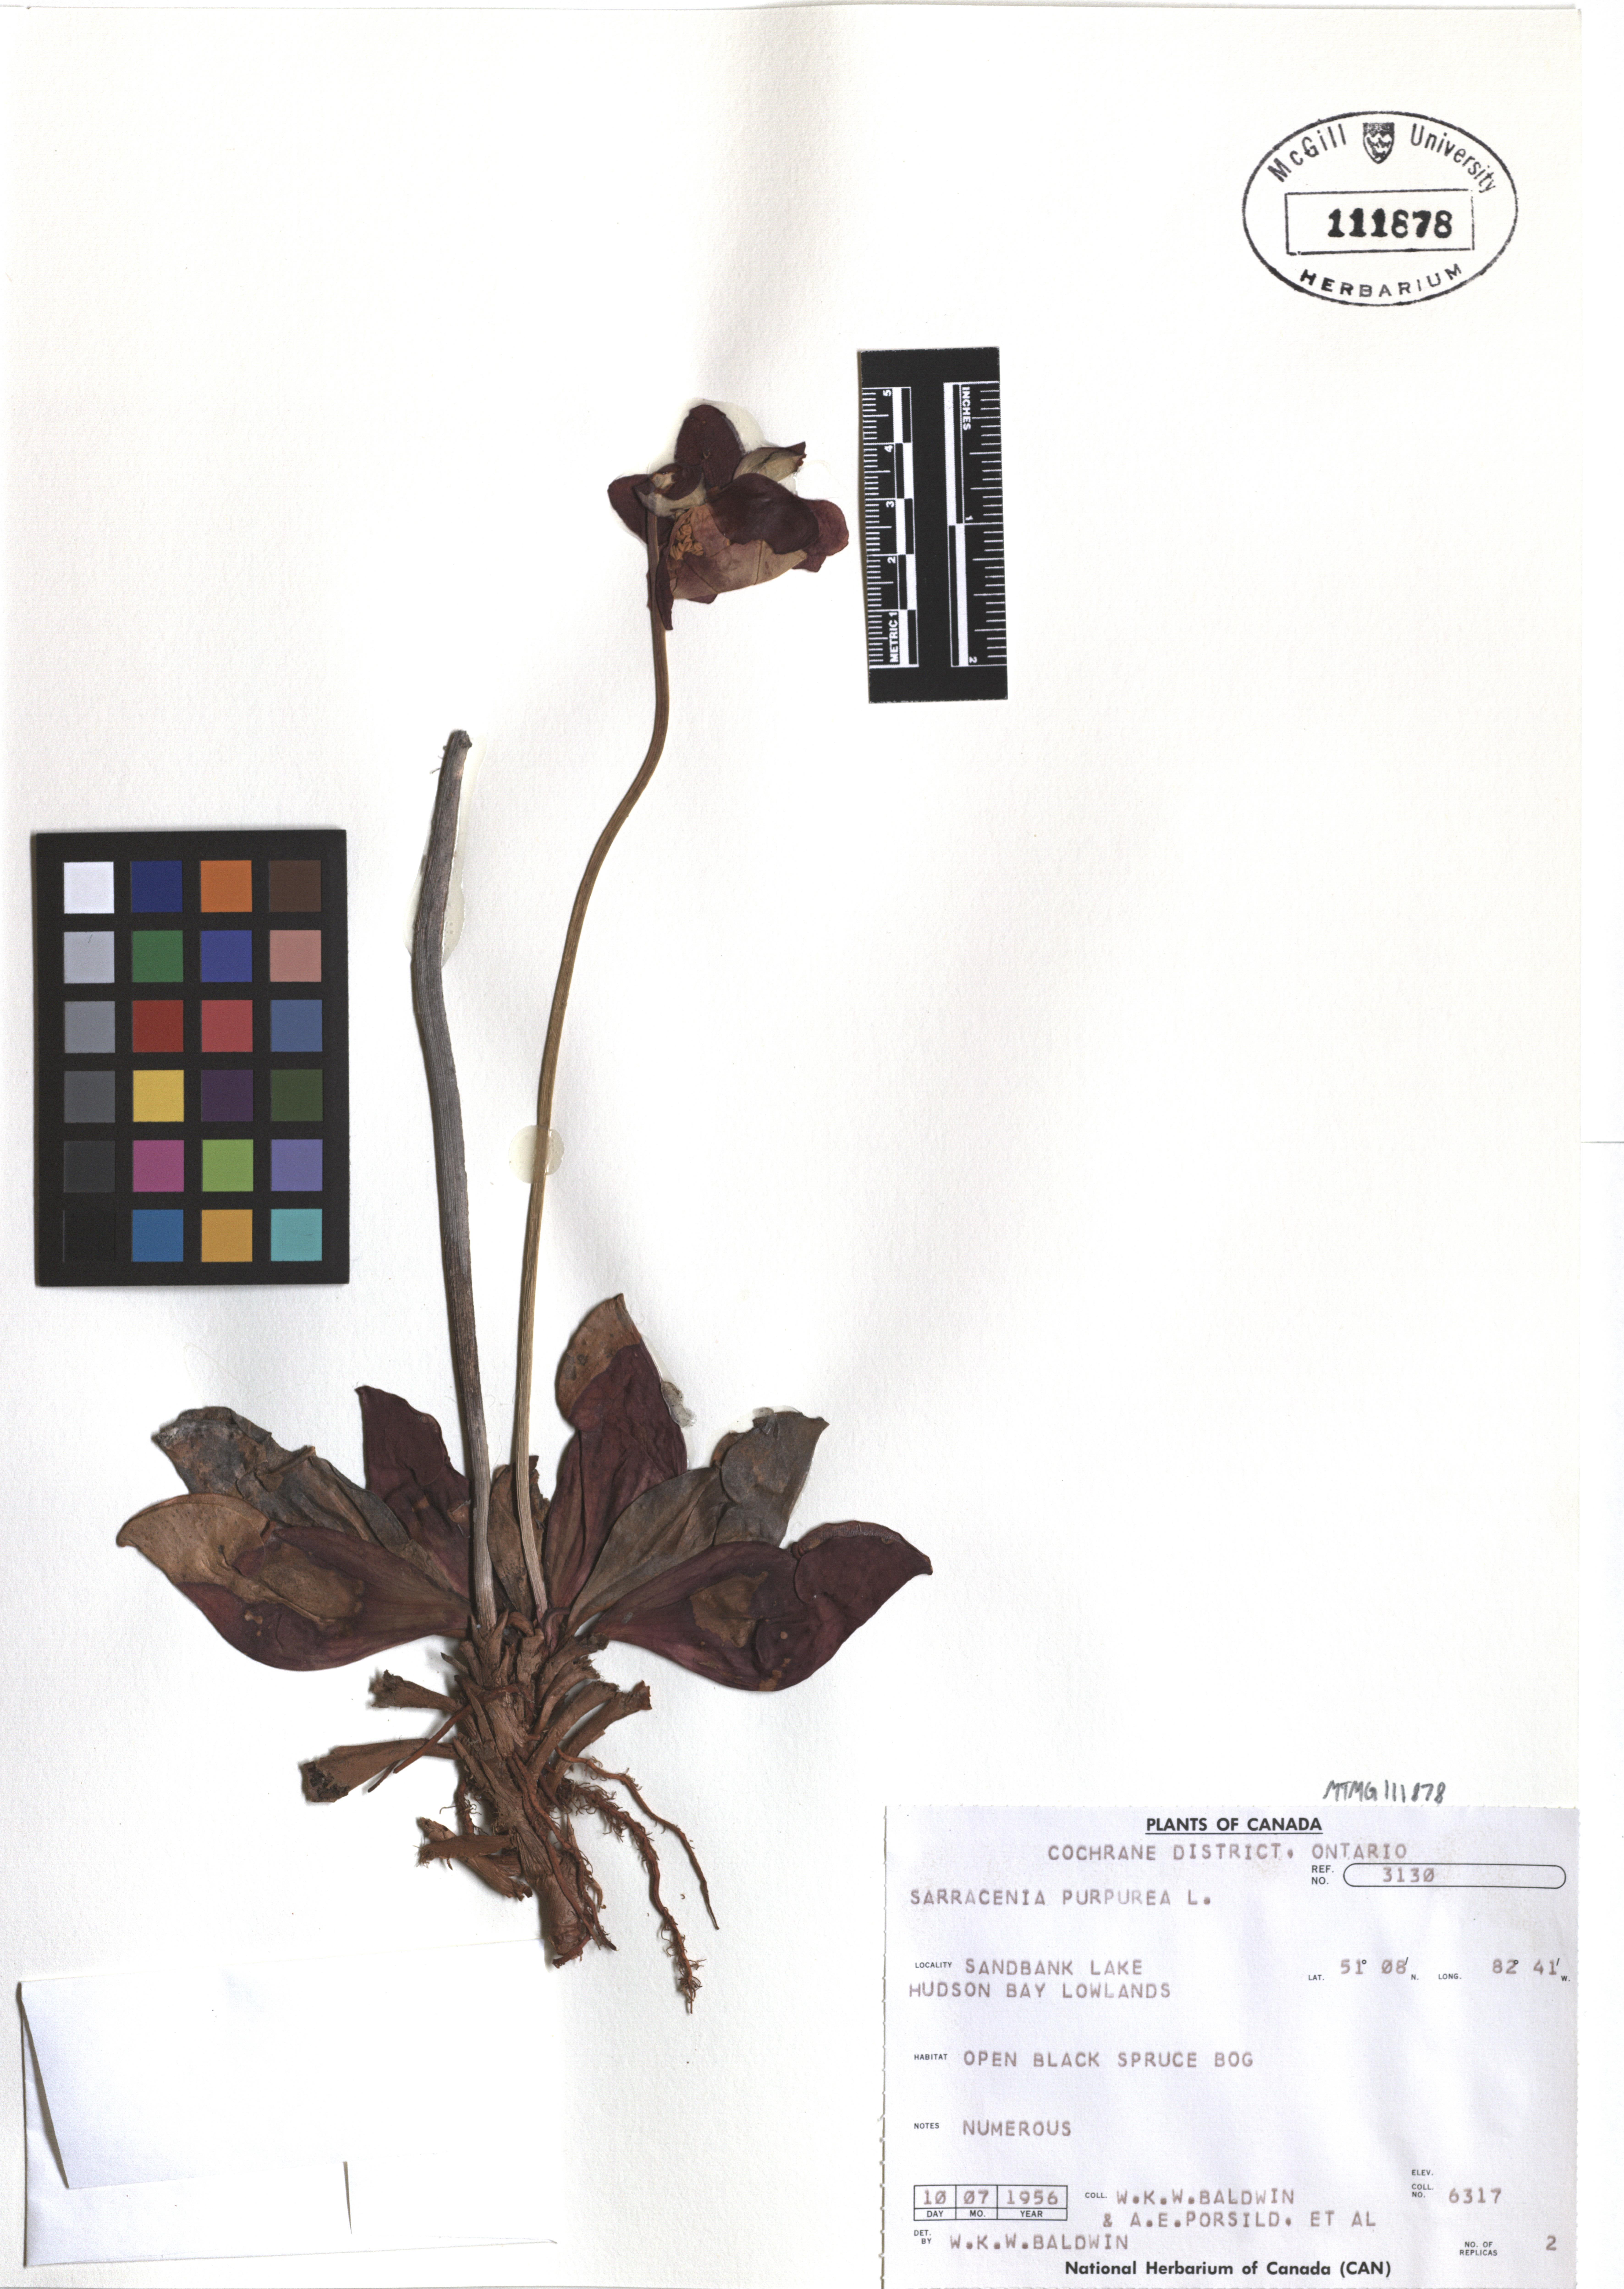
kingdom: Plantae
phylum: Tracheophyta
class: Magnoliopsida
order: Ericales
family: Sarraceniaceae
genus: Sarracenia
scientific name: Sarracenia purpurea
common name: Pitcherplant
